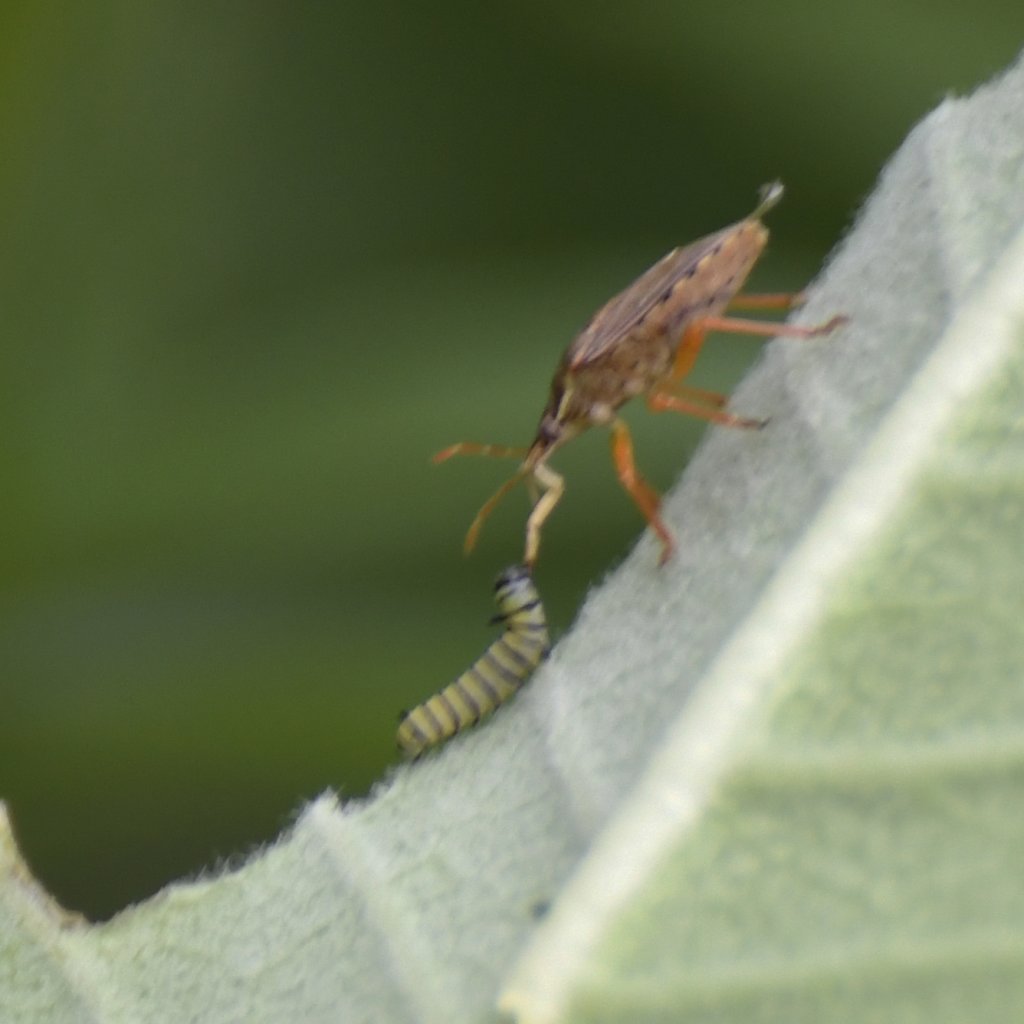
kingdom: Animalia
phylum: Arthropoda
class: Insecta
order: Lepidoptera
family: Nymphalidae
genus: Danaus
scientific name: Danaus plexippus
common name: Monarch
